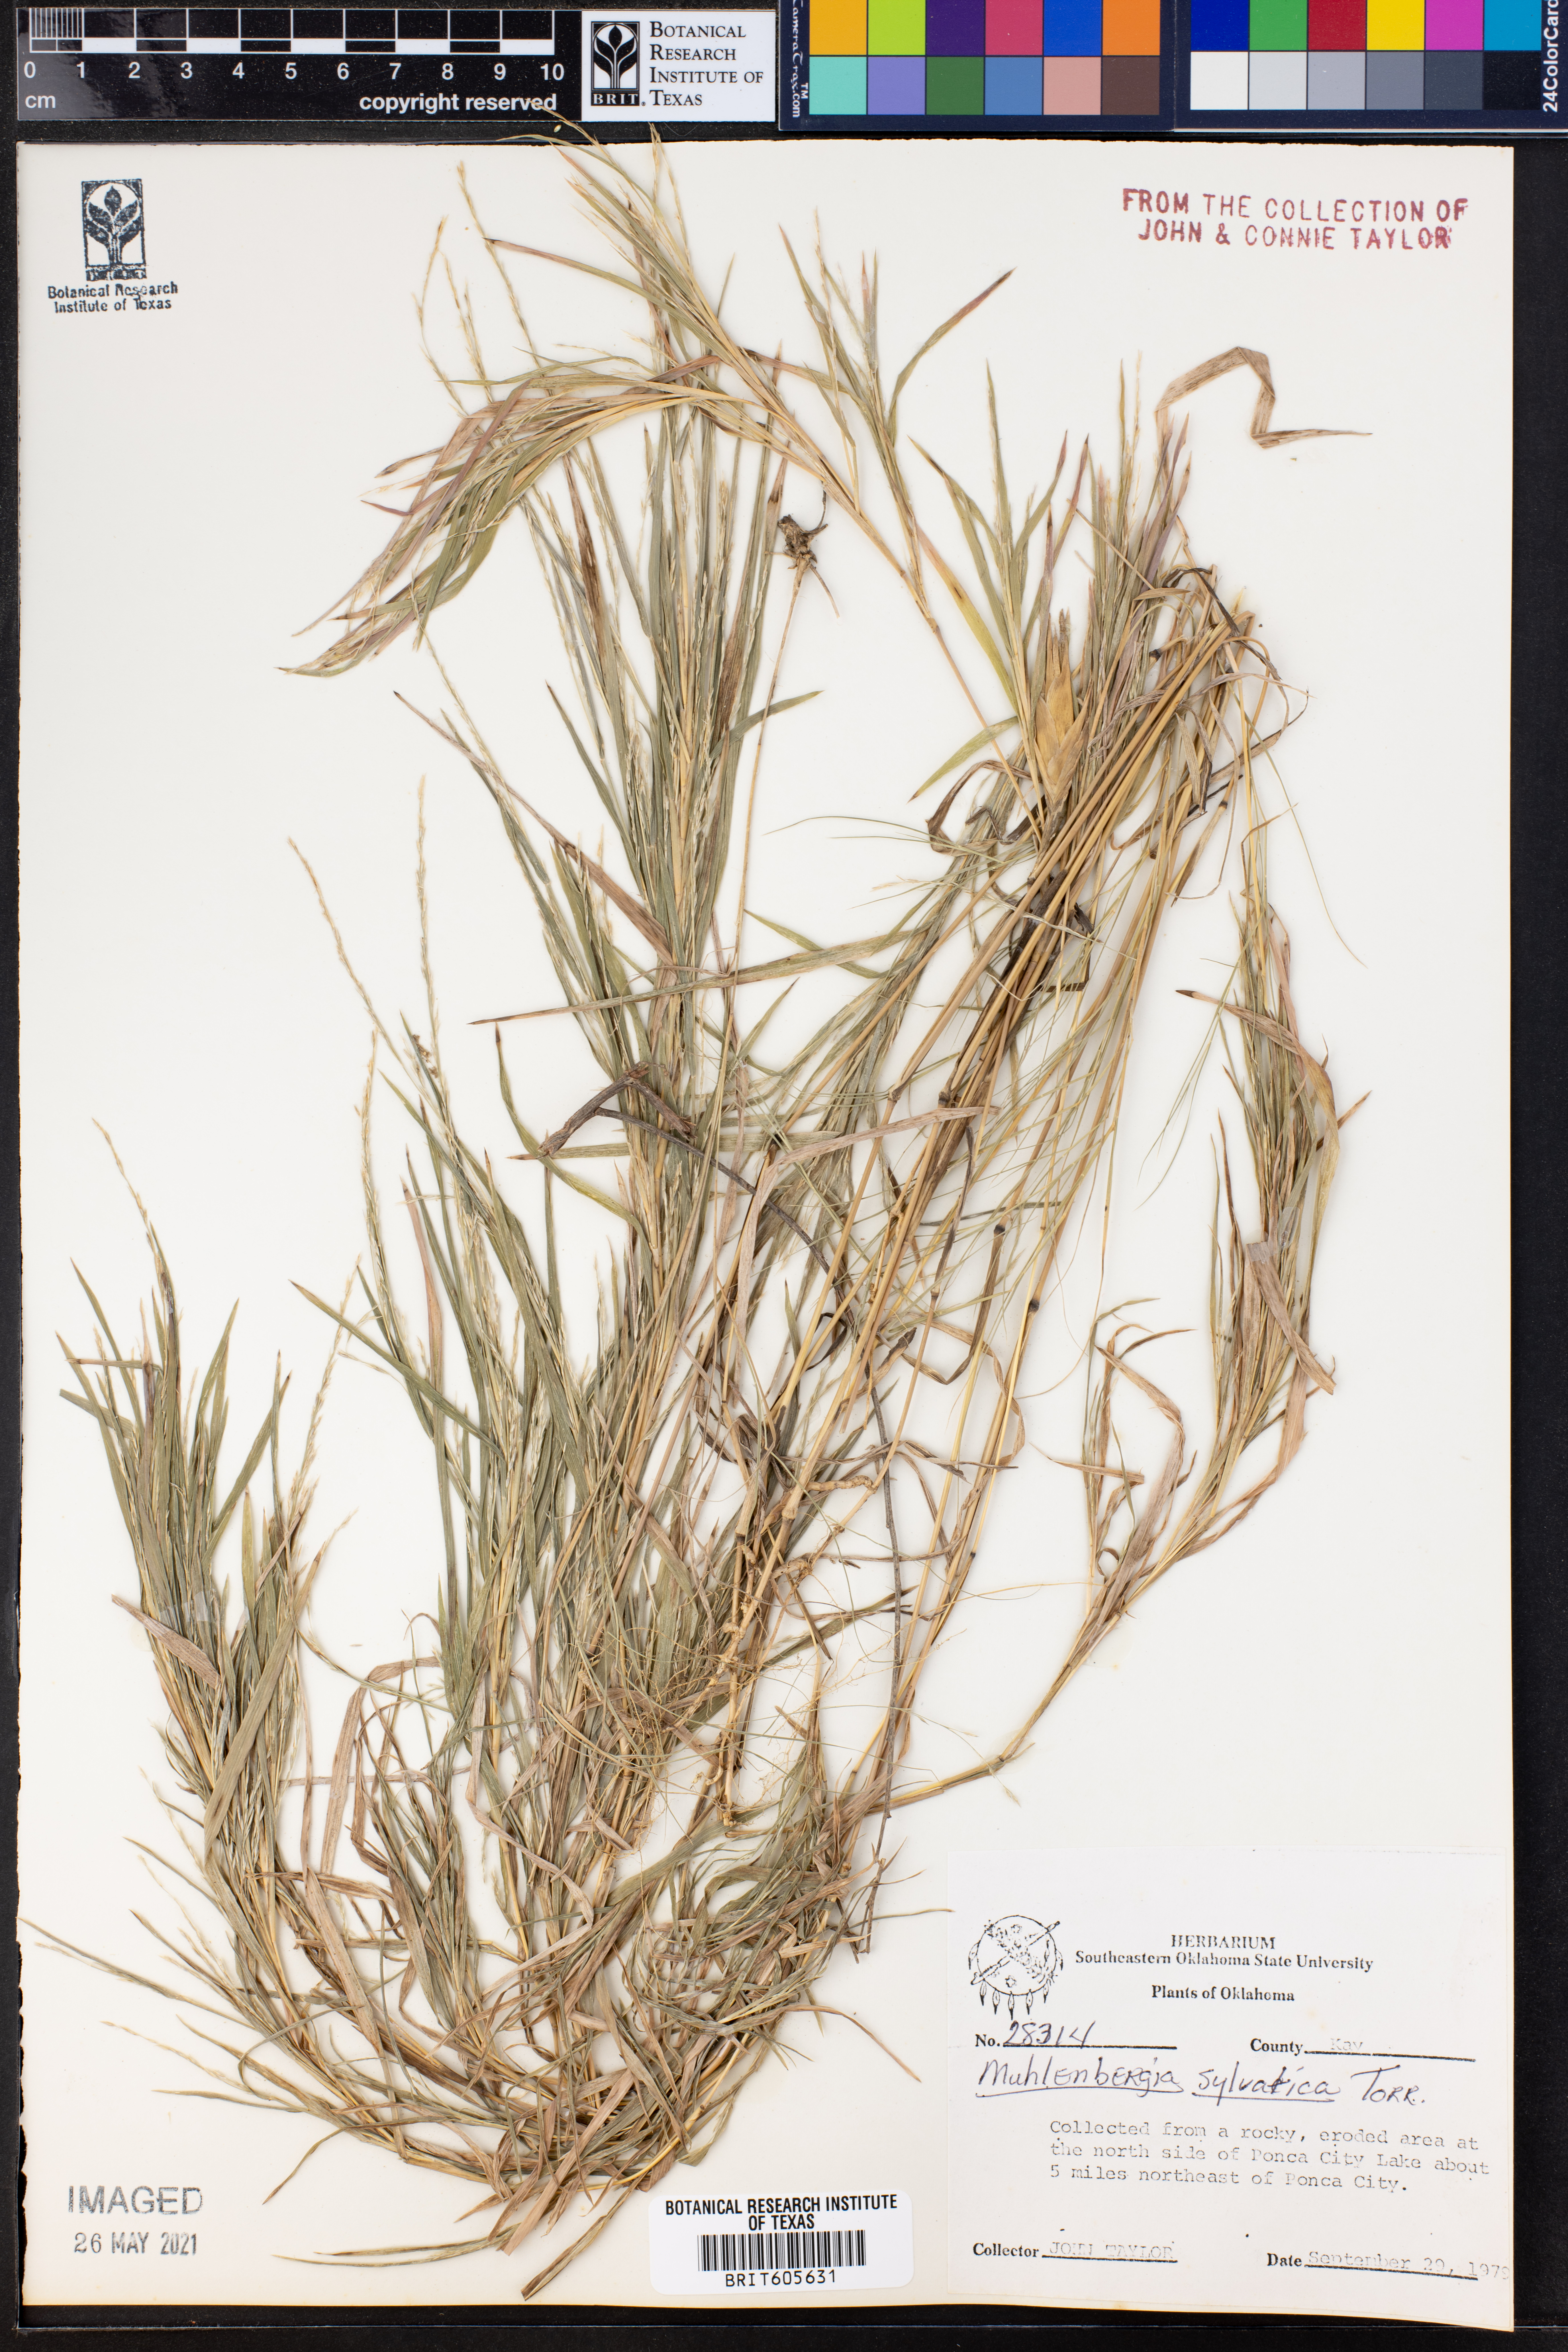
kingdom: Plantae
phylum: Tracheophyta
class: Liliopsida
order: Poales
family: Poaceae
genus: Muhlenbergia
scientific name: Muhlenbergia sylvatica
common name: Woodland muhly
